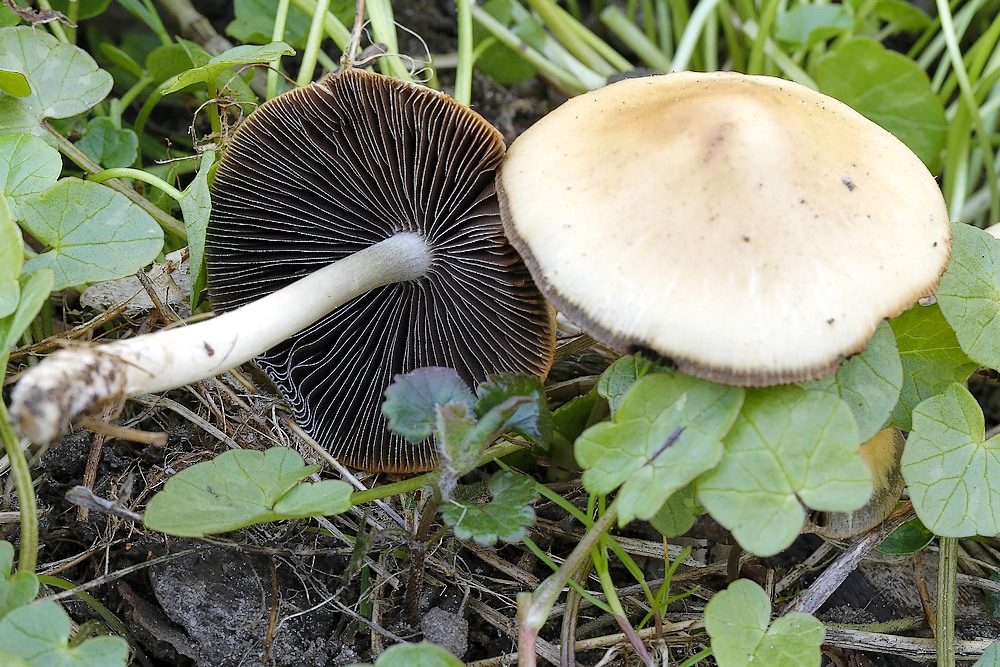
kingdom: Fungi
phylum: Basidiomycota
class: Agaricomycetes
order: Agaricales
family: Psathyrellaceae
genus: Psathyrella
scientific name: Psathyrella spadiceogrisea
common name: gråbrun mørkhat
